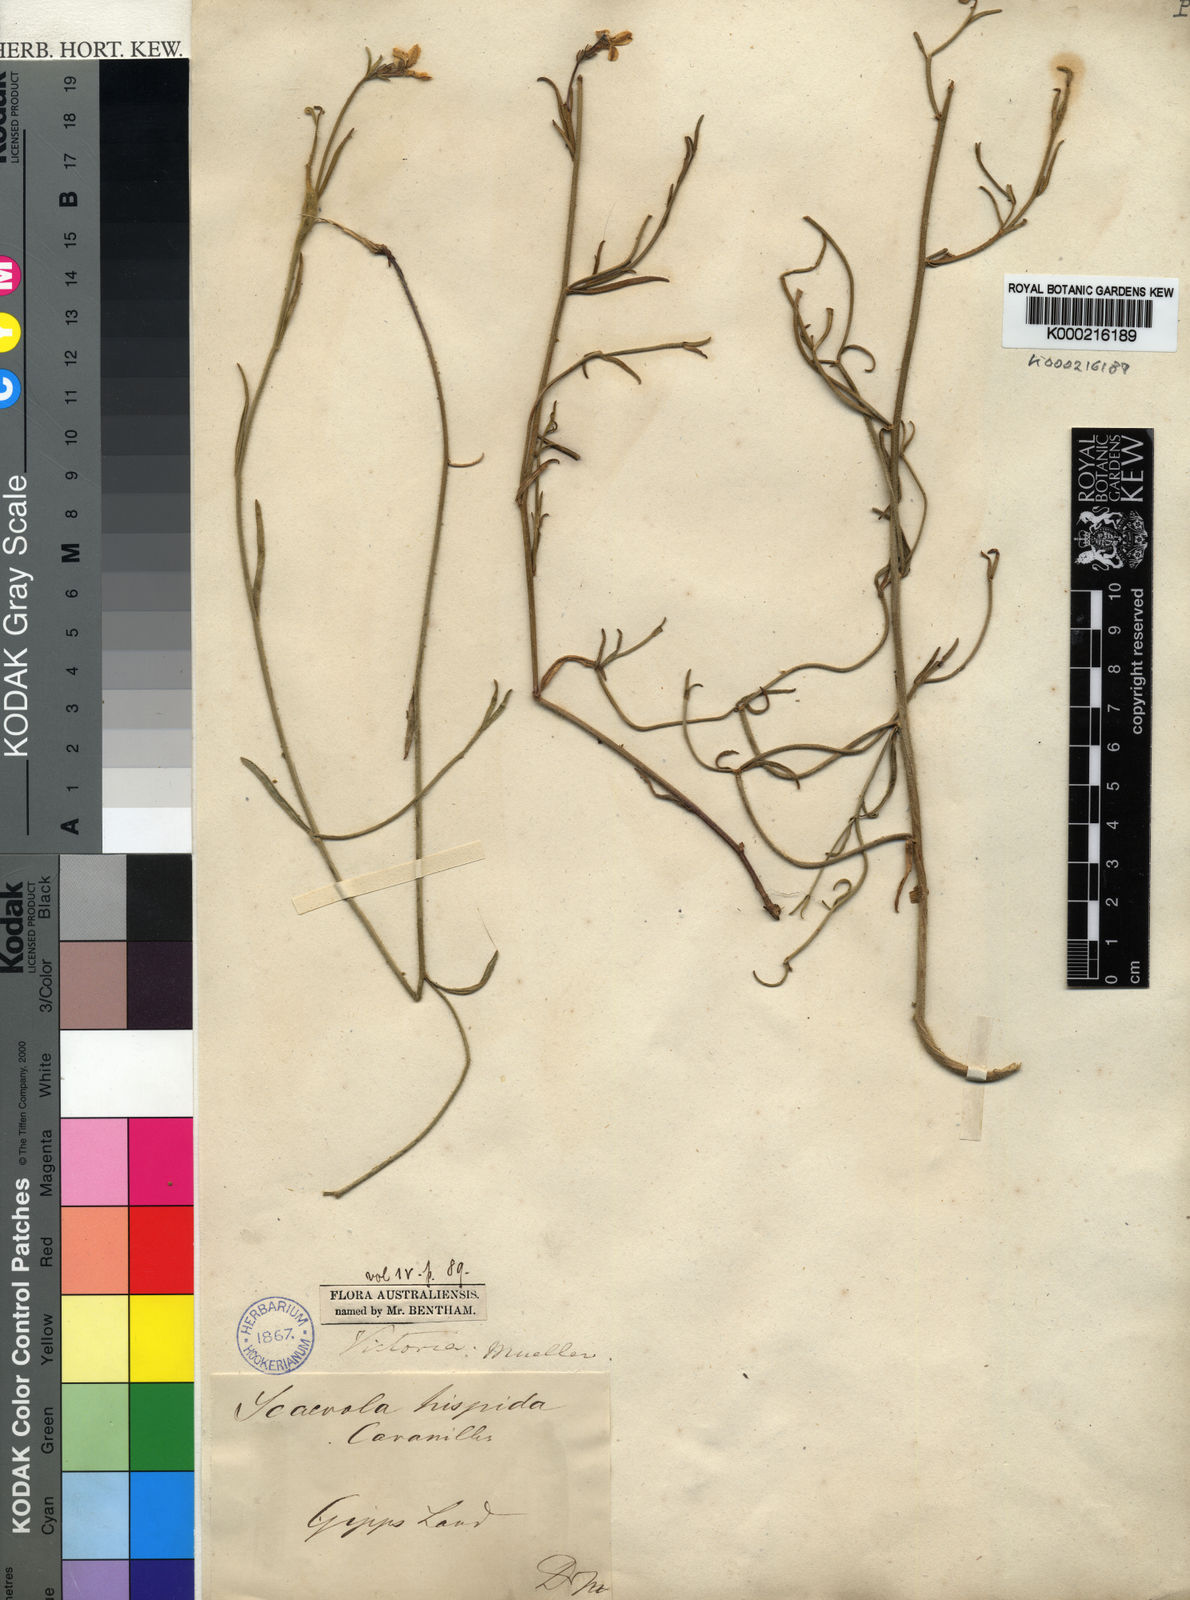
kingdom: Plantae
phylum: Tracheophyta
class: Magnoliopsida
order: Asterales
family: Goodeniaceae
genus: Scaevola
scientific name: Scaevola
